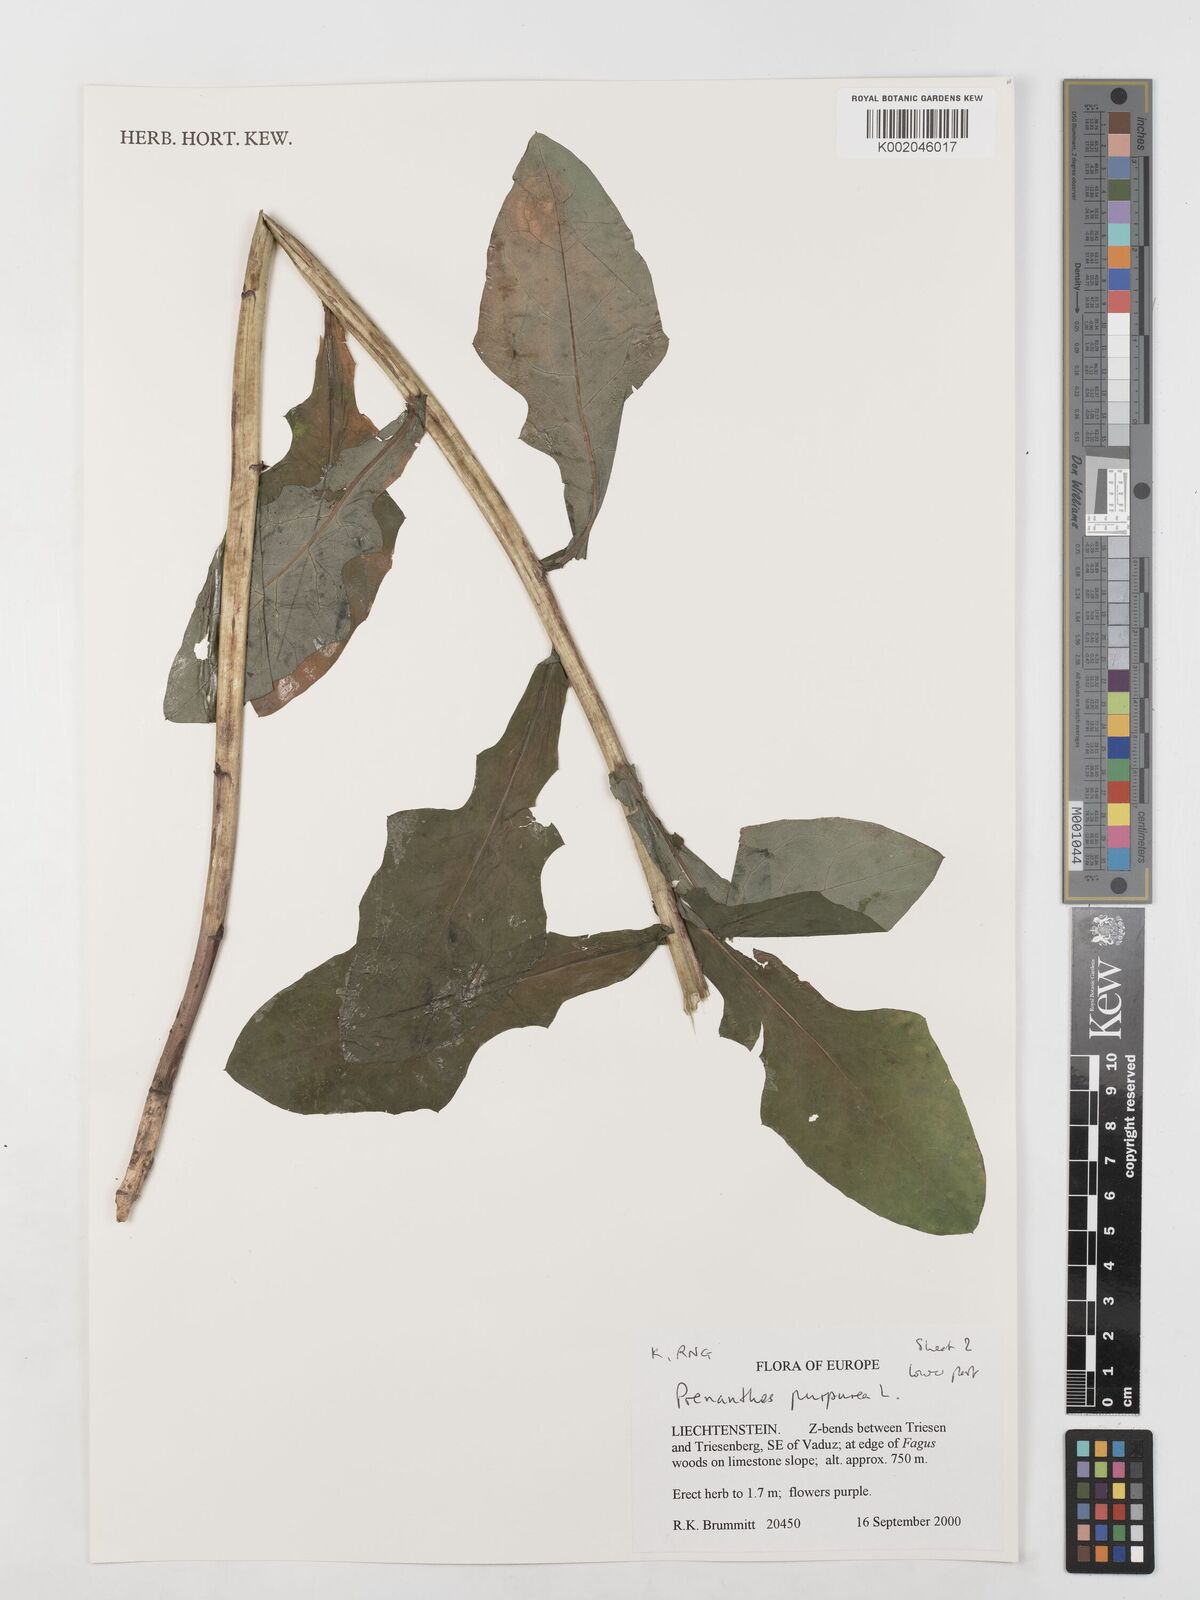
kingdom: Plantae
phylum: Tracheophyta
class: Magnoliopsida
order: Asterales
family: Asteraceae
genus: Prenanthes
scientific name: Prenanthes purpurea
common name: Purple lettuce
